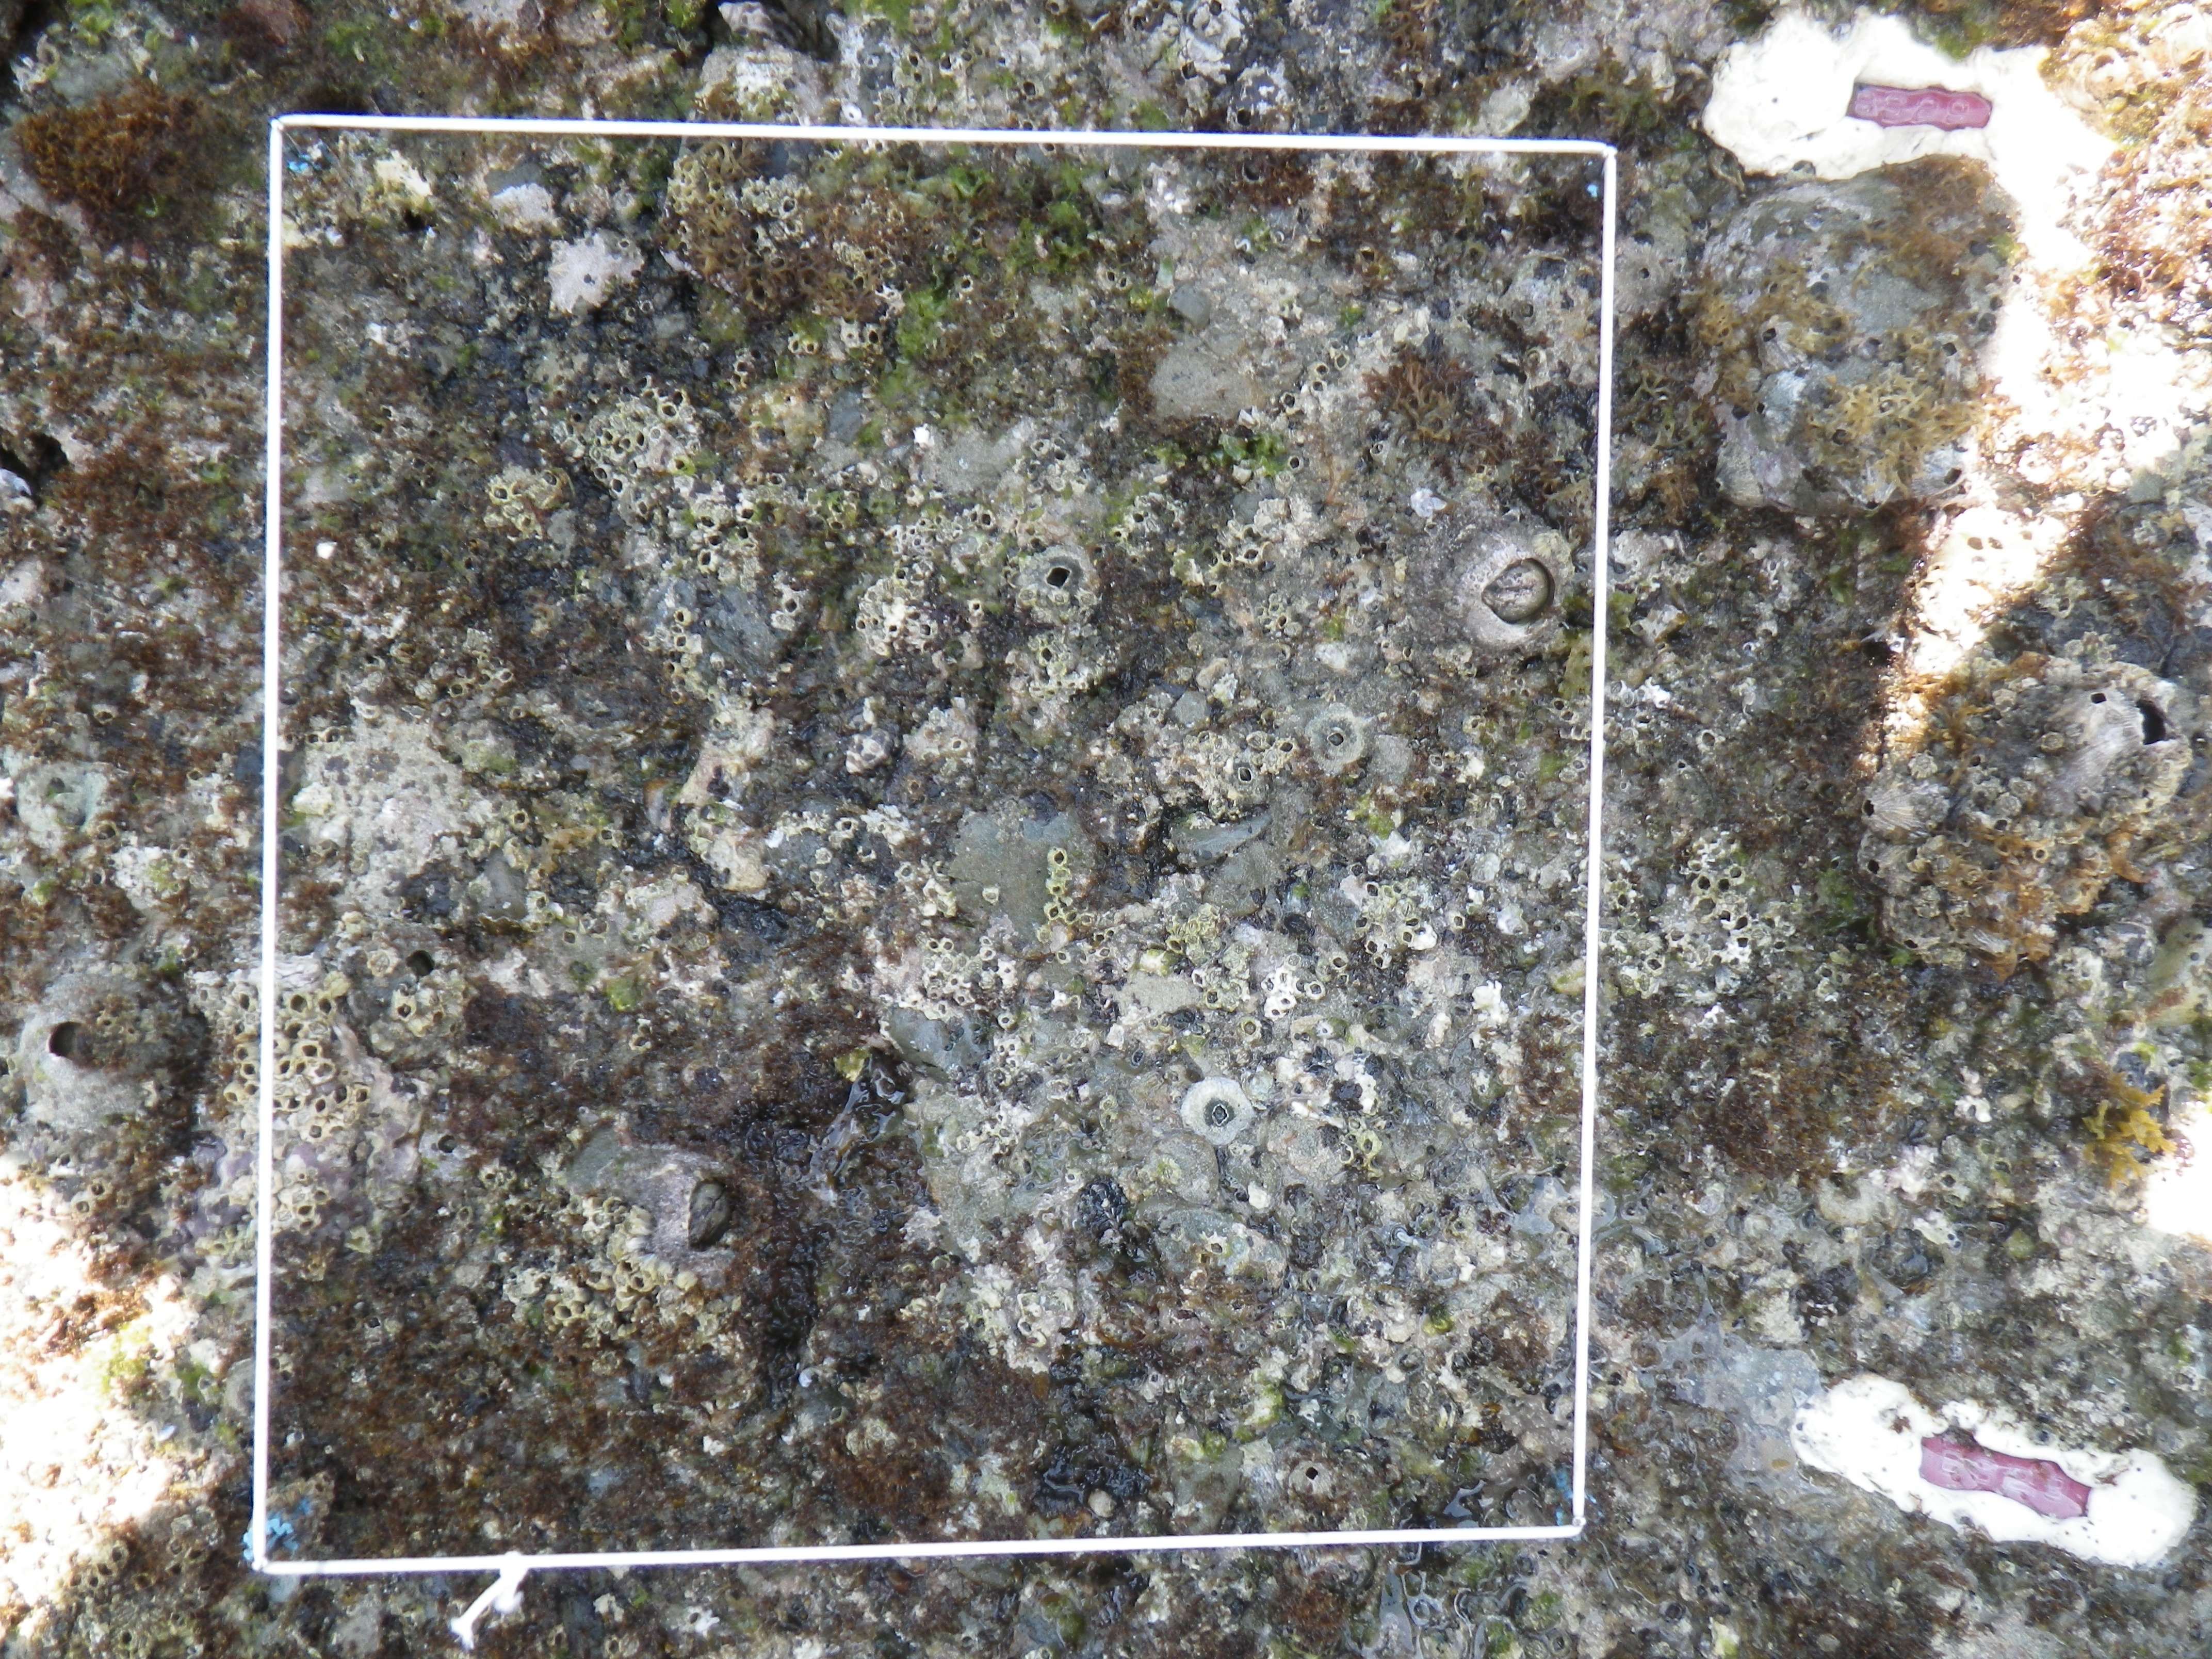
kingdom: Animalia
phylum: Arthropoda
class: Maxillopoda
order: Sessilia
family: Chthamalidae
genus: Chthamalus
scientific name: Chthamalus challengeri
